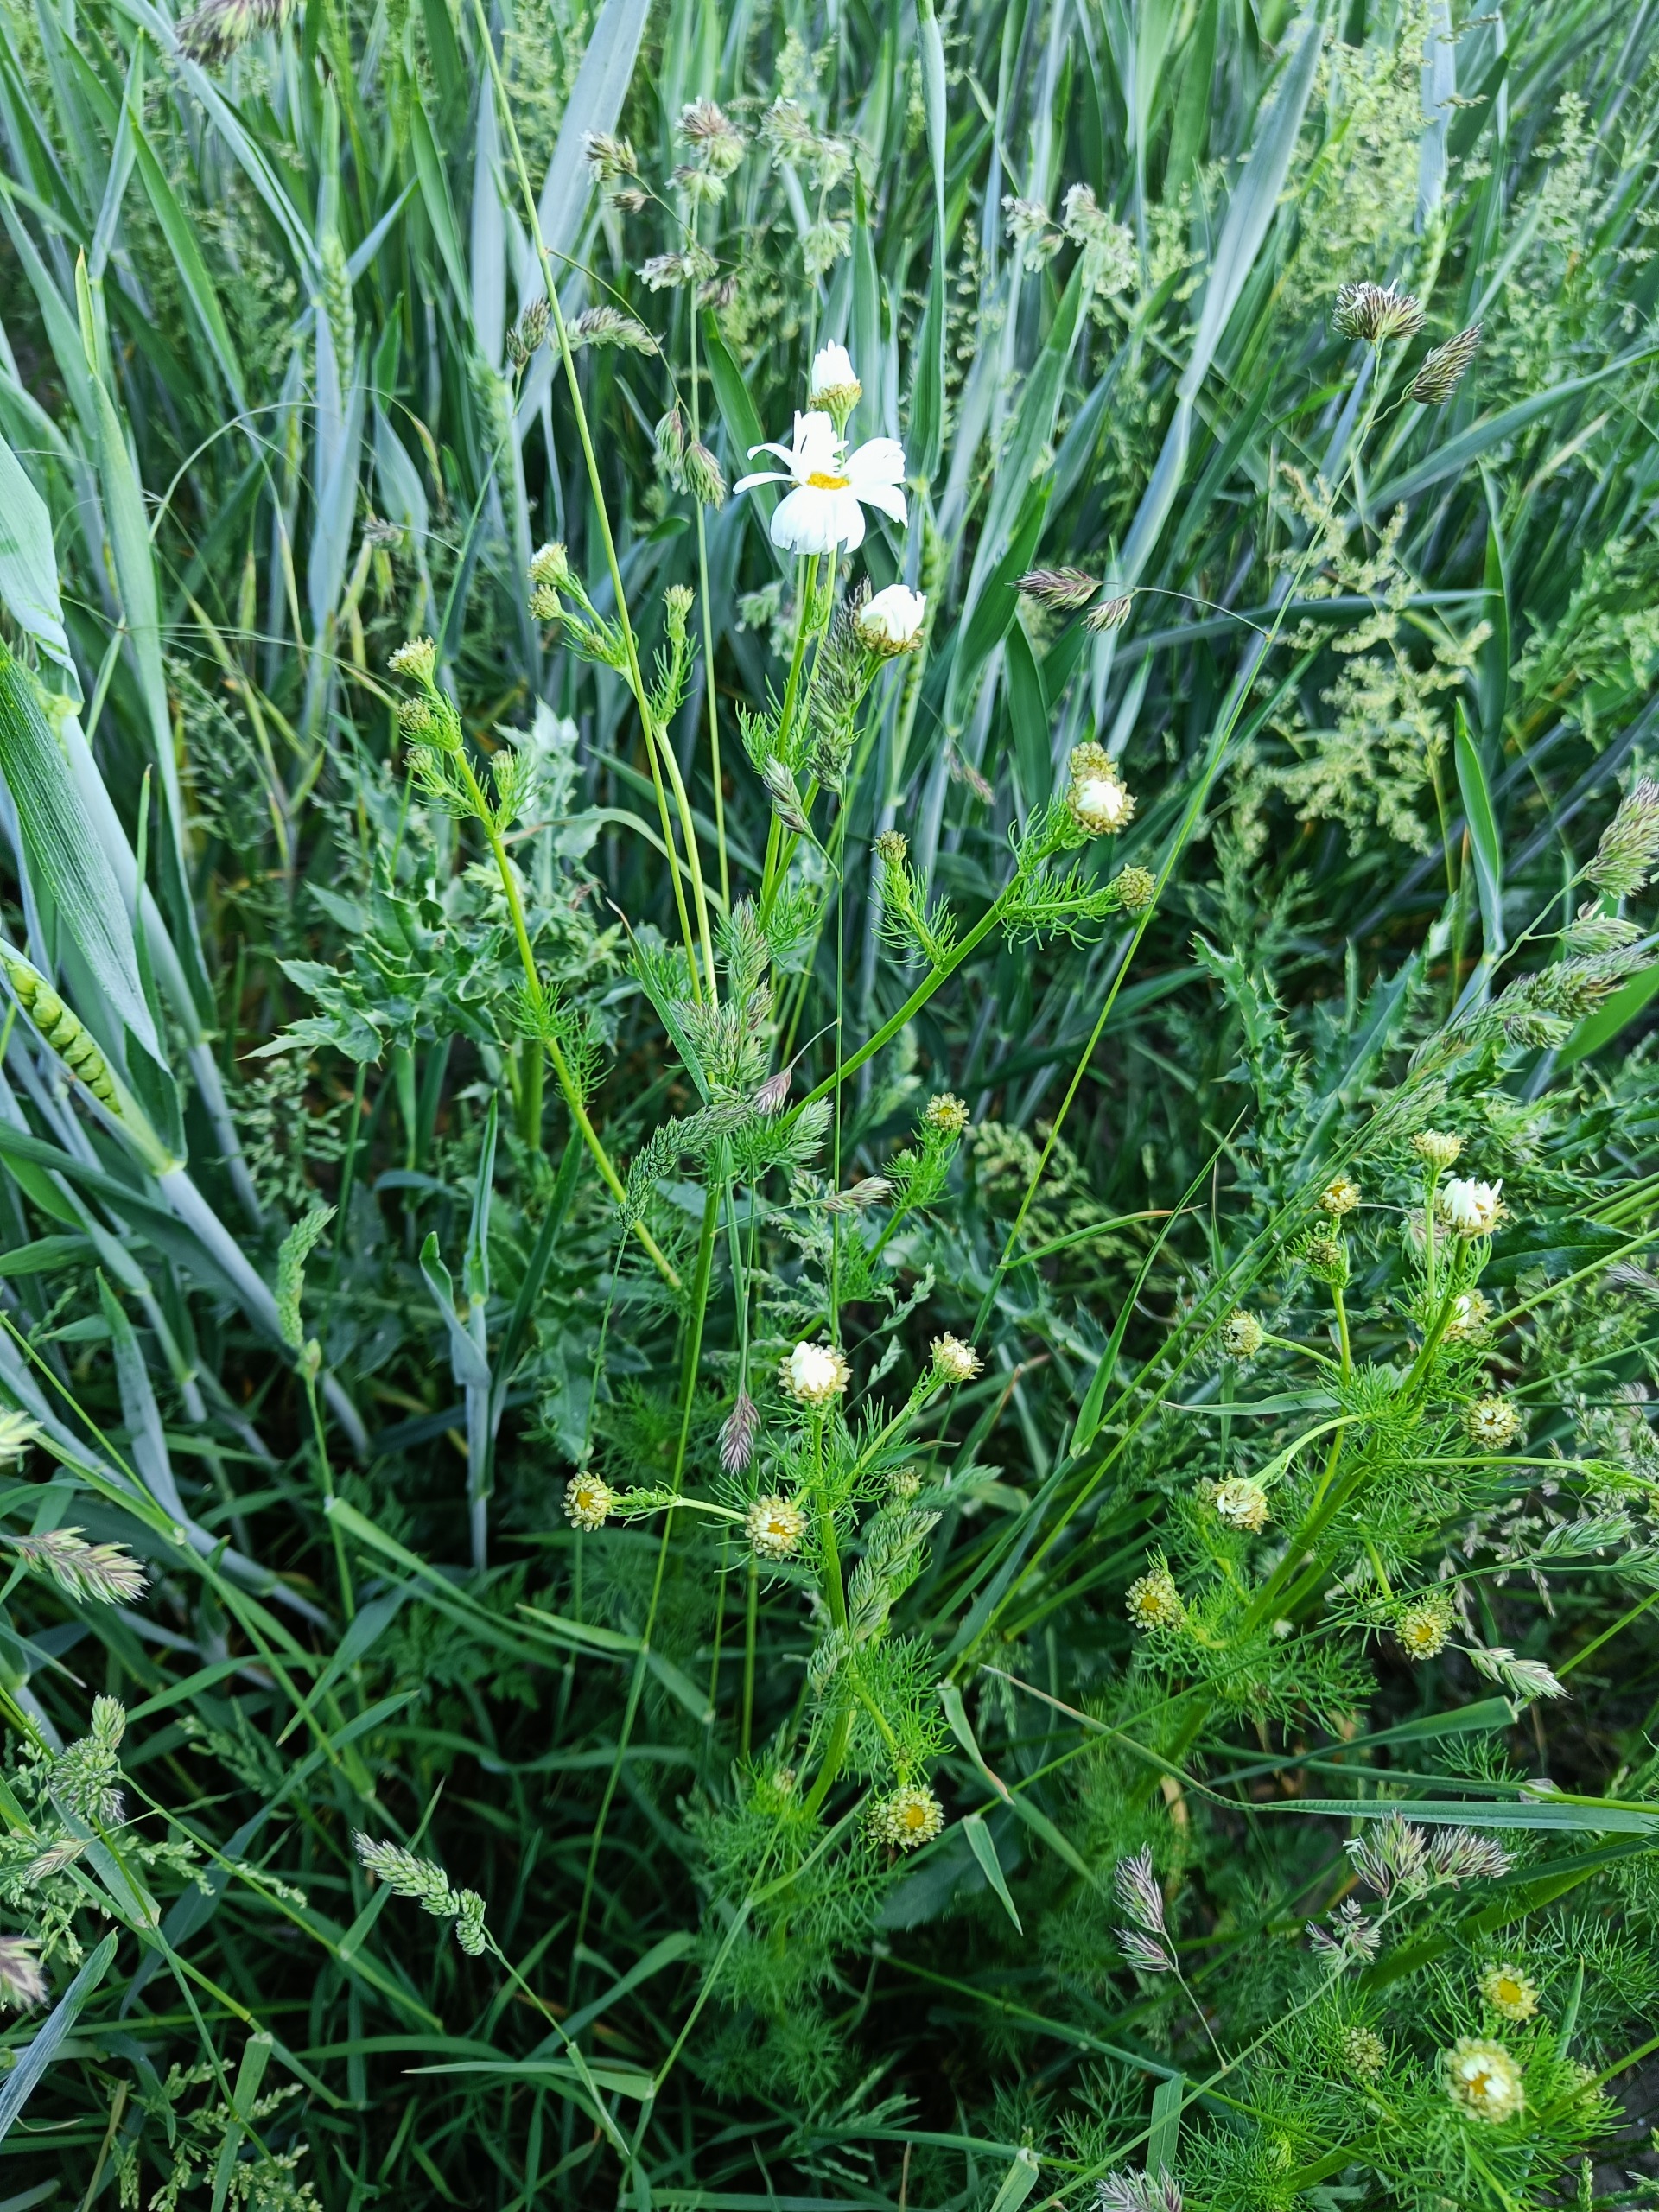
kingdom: Plantae
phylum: Tracheophyta
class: Magnoliopsida
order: Asterales
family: Asteraceae
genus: Tripleurospermum
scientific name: Tripleurospermum inodorum
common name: Lugtløs kamille
